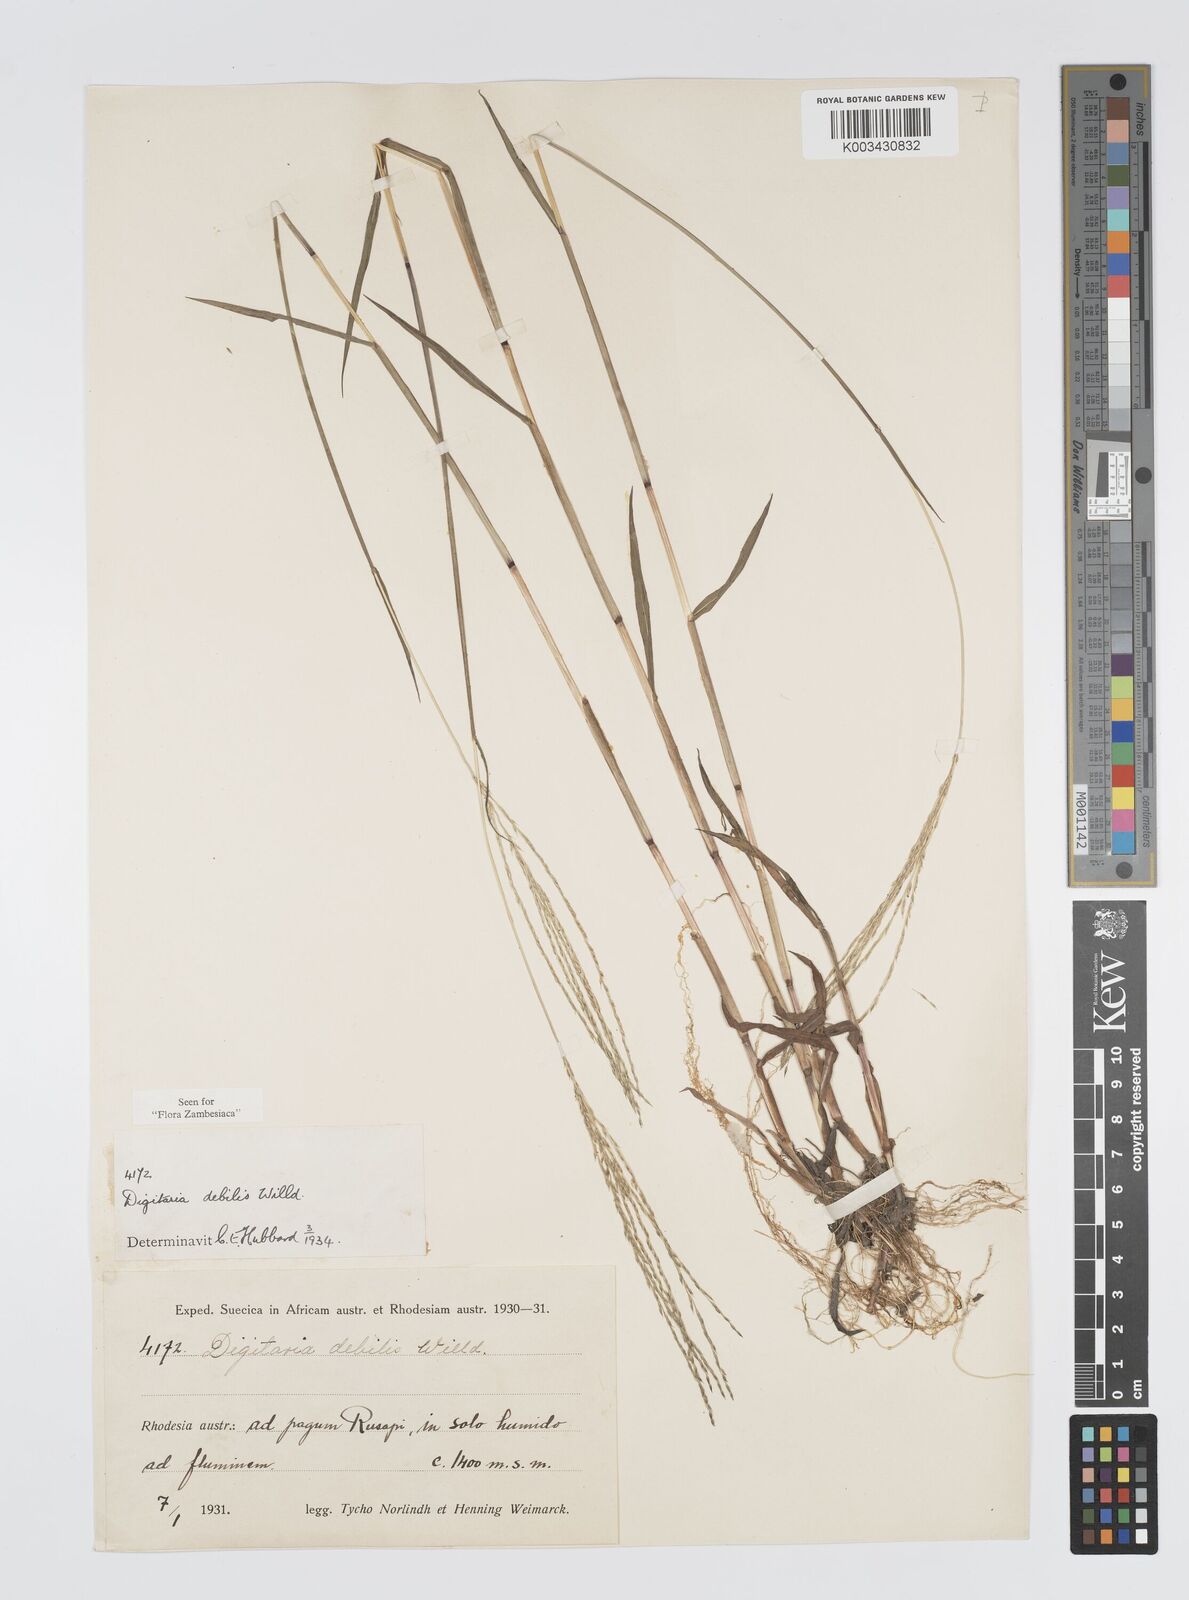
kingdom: Plantae
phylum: Tracheophyta
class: Liliopsida
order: Poales
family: Poaceae
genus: Digitaria
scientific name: Digitaria debilis
